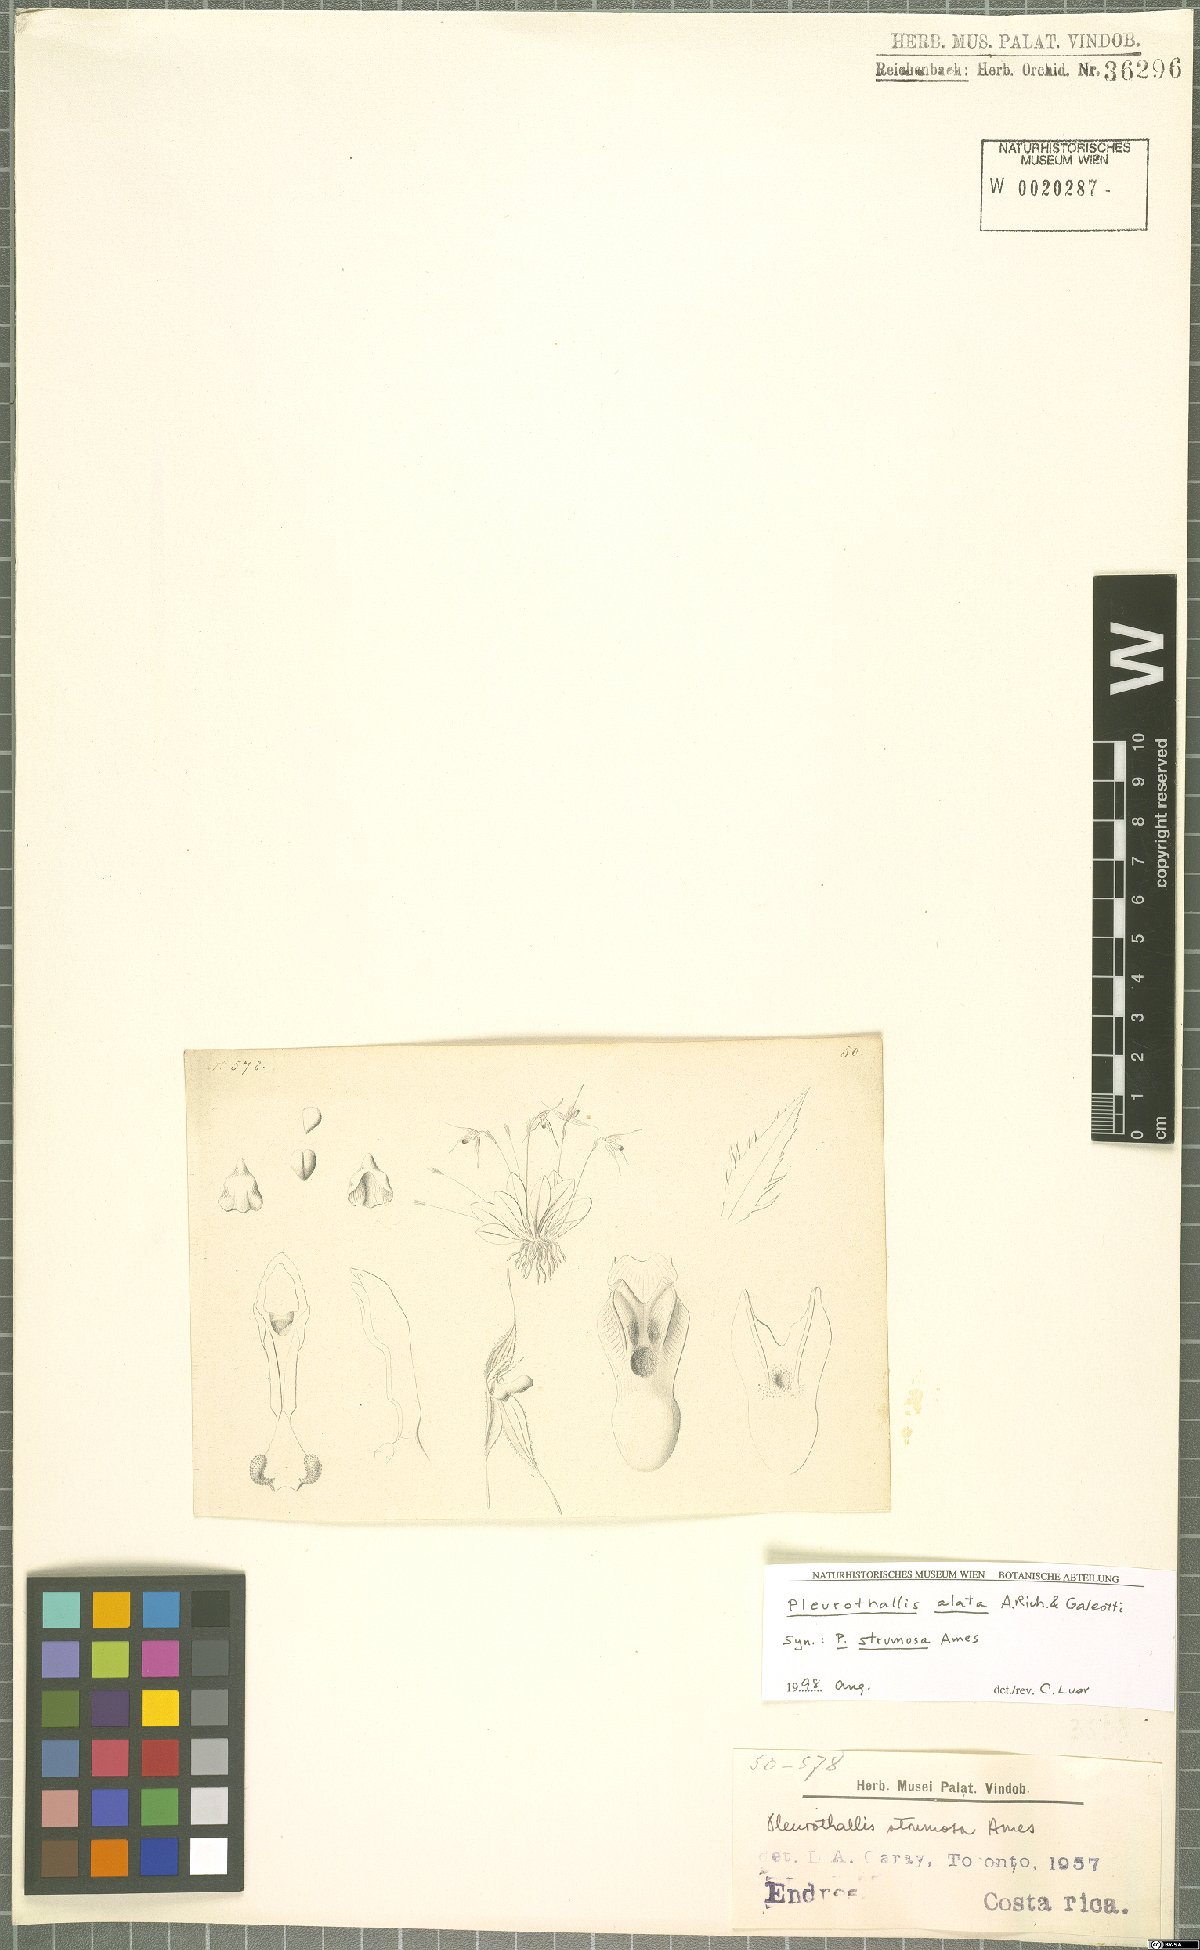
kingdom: Plantae
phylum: Tracheophyta
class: Liliopsida
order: Asparagales
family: Orchidaceae
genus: Muscarella
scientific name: Muscarella marginata
